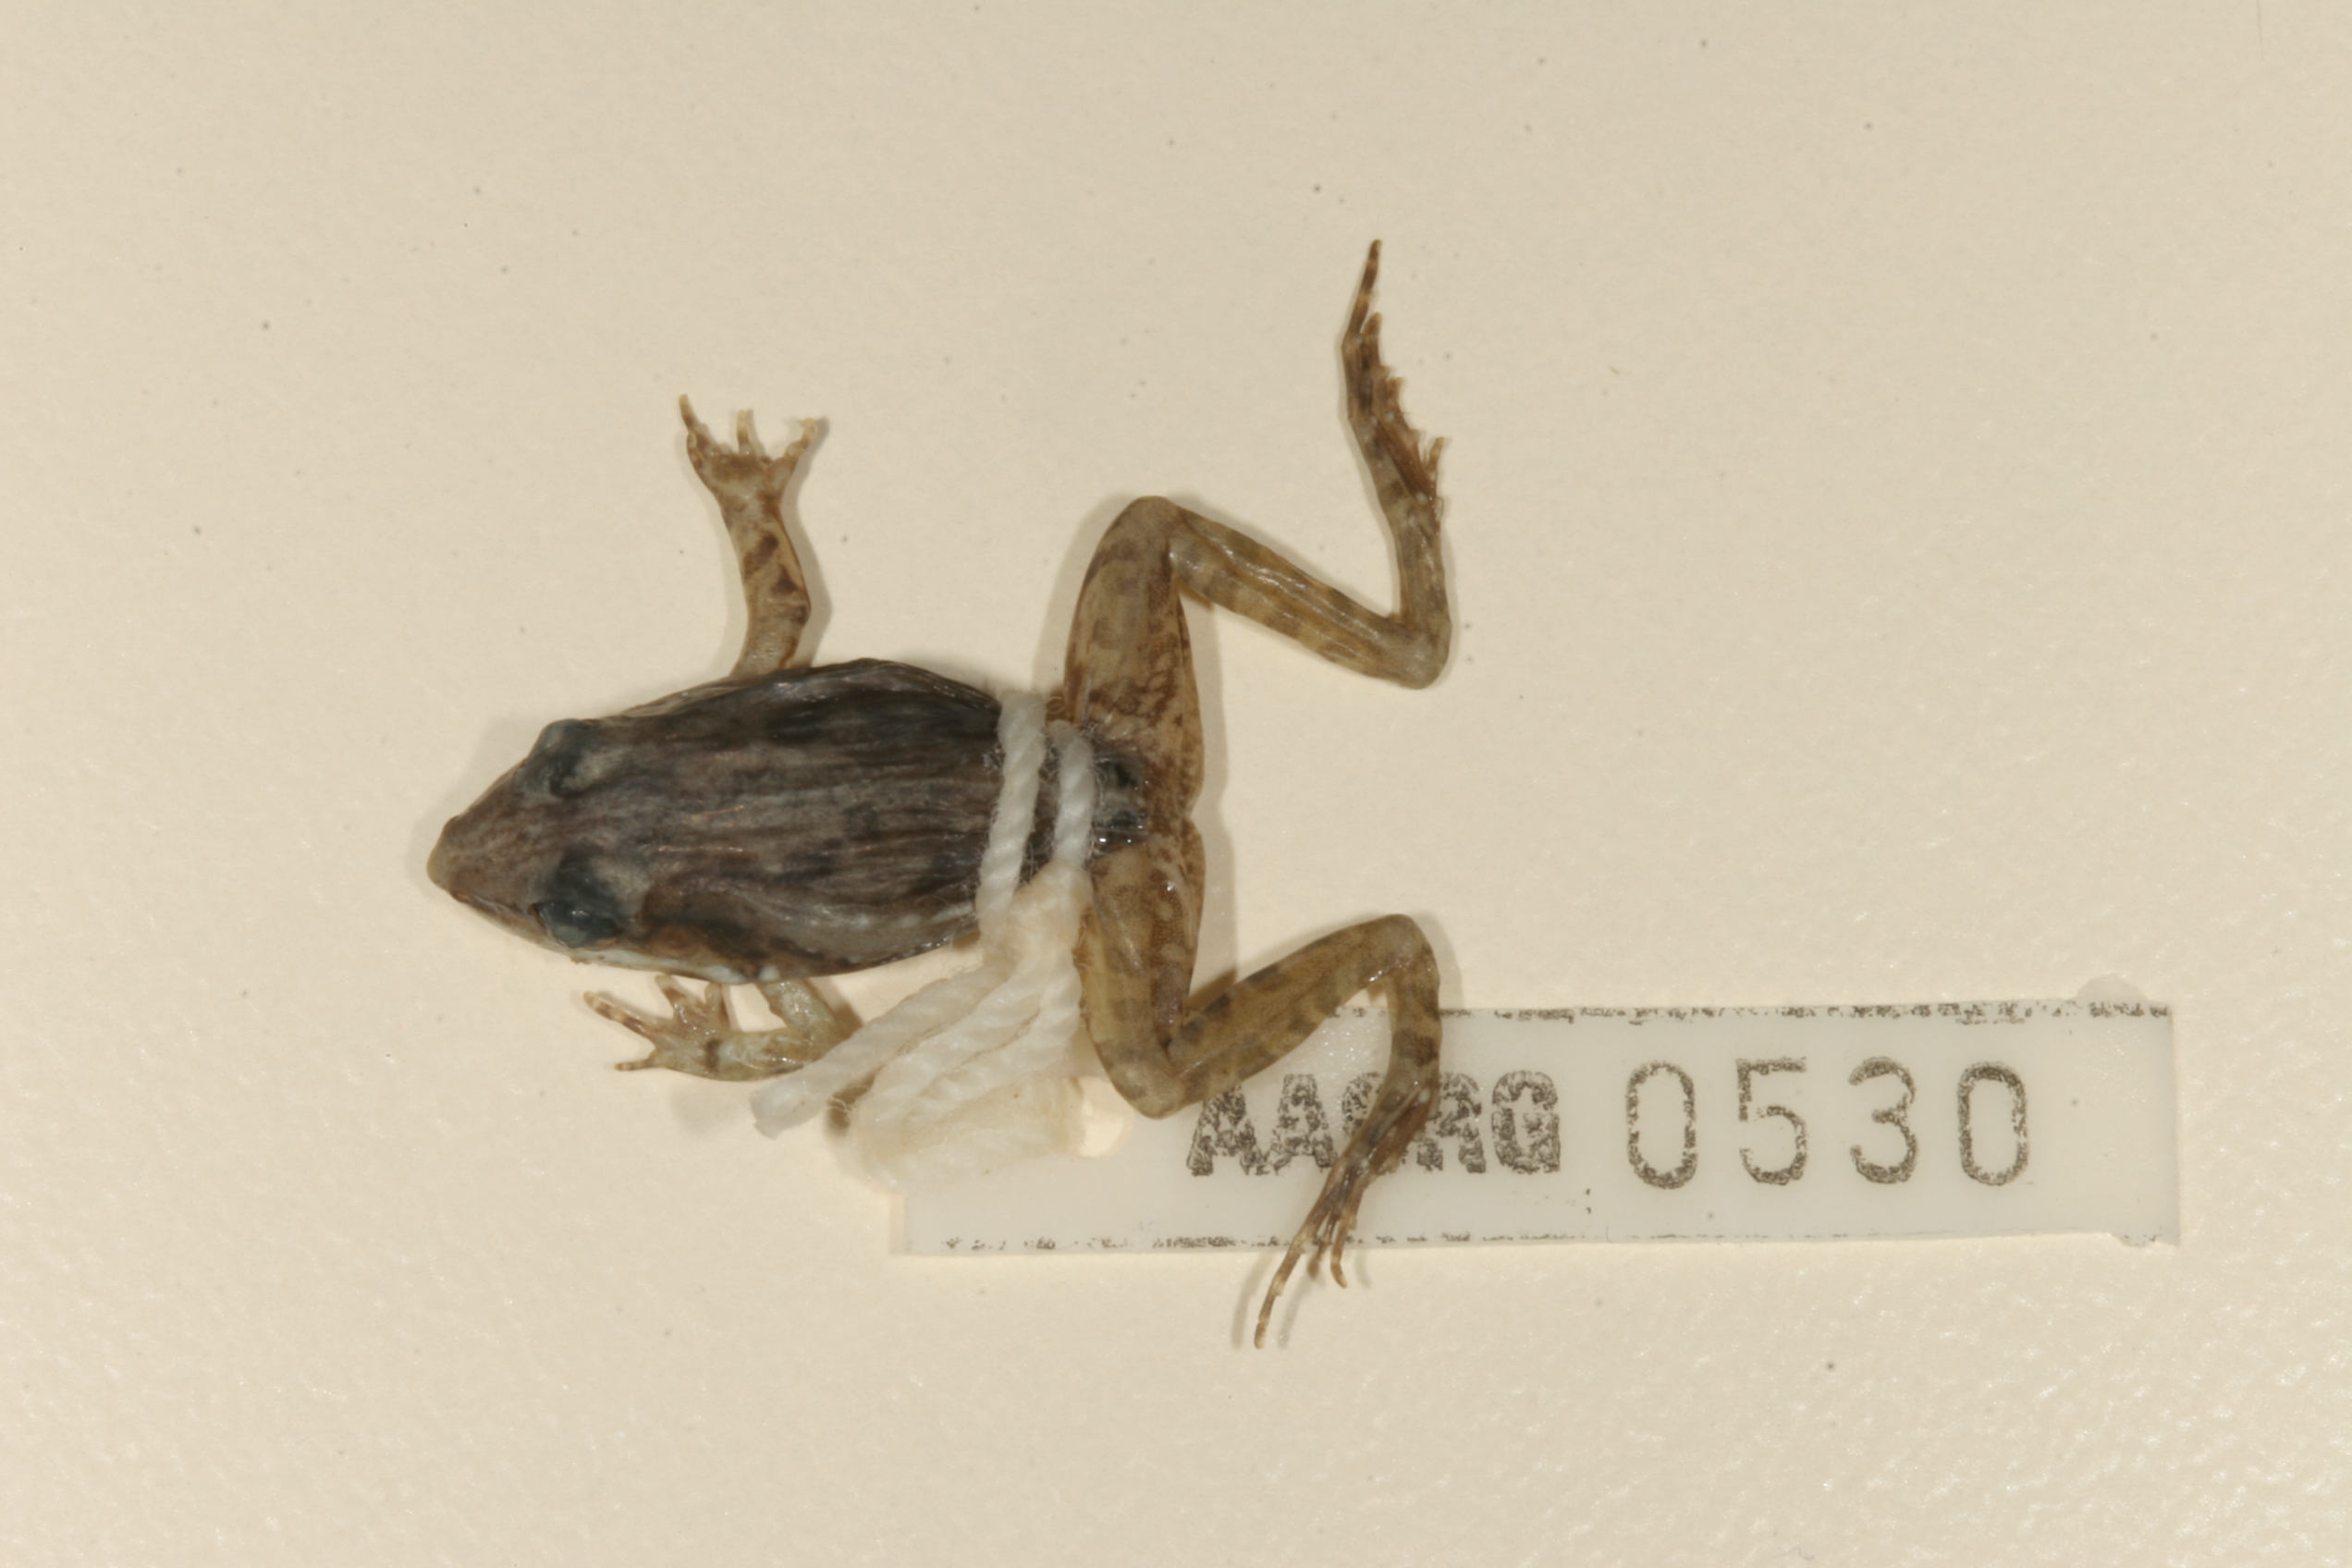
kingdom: Animalia
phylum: Chordata
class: Amphibia
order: Anura
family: Ptychadenidae
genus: Ptychadena
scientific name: Ptychadena anchietae
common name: Anchieta's ridged frog
